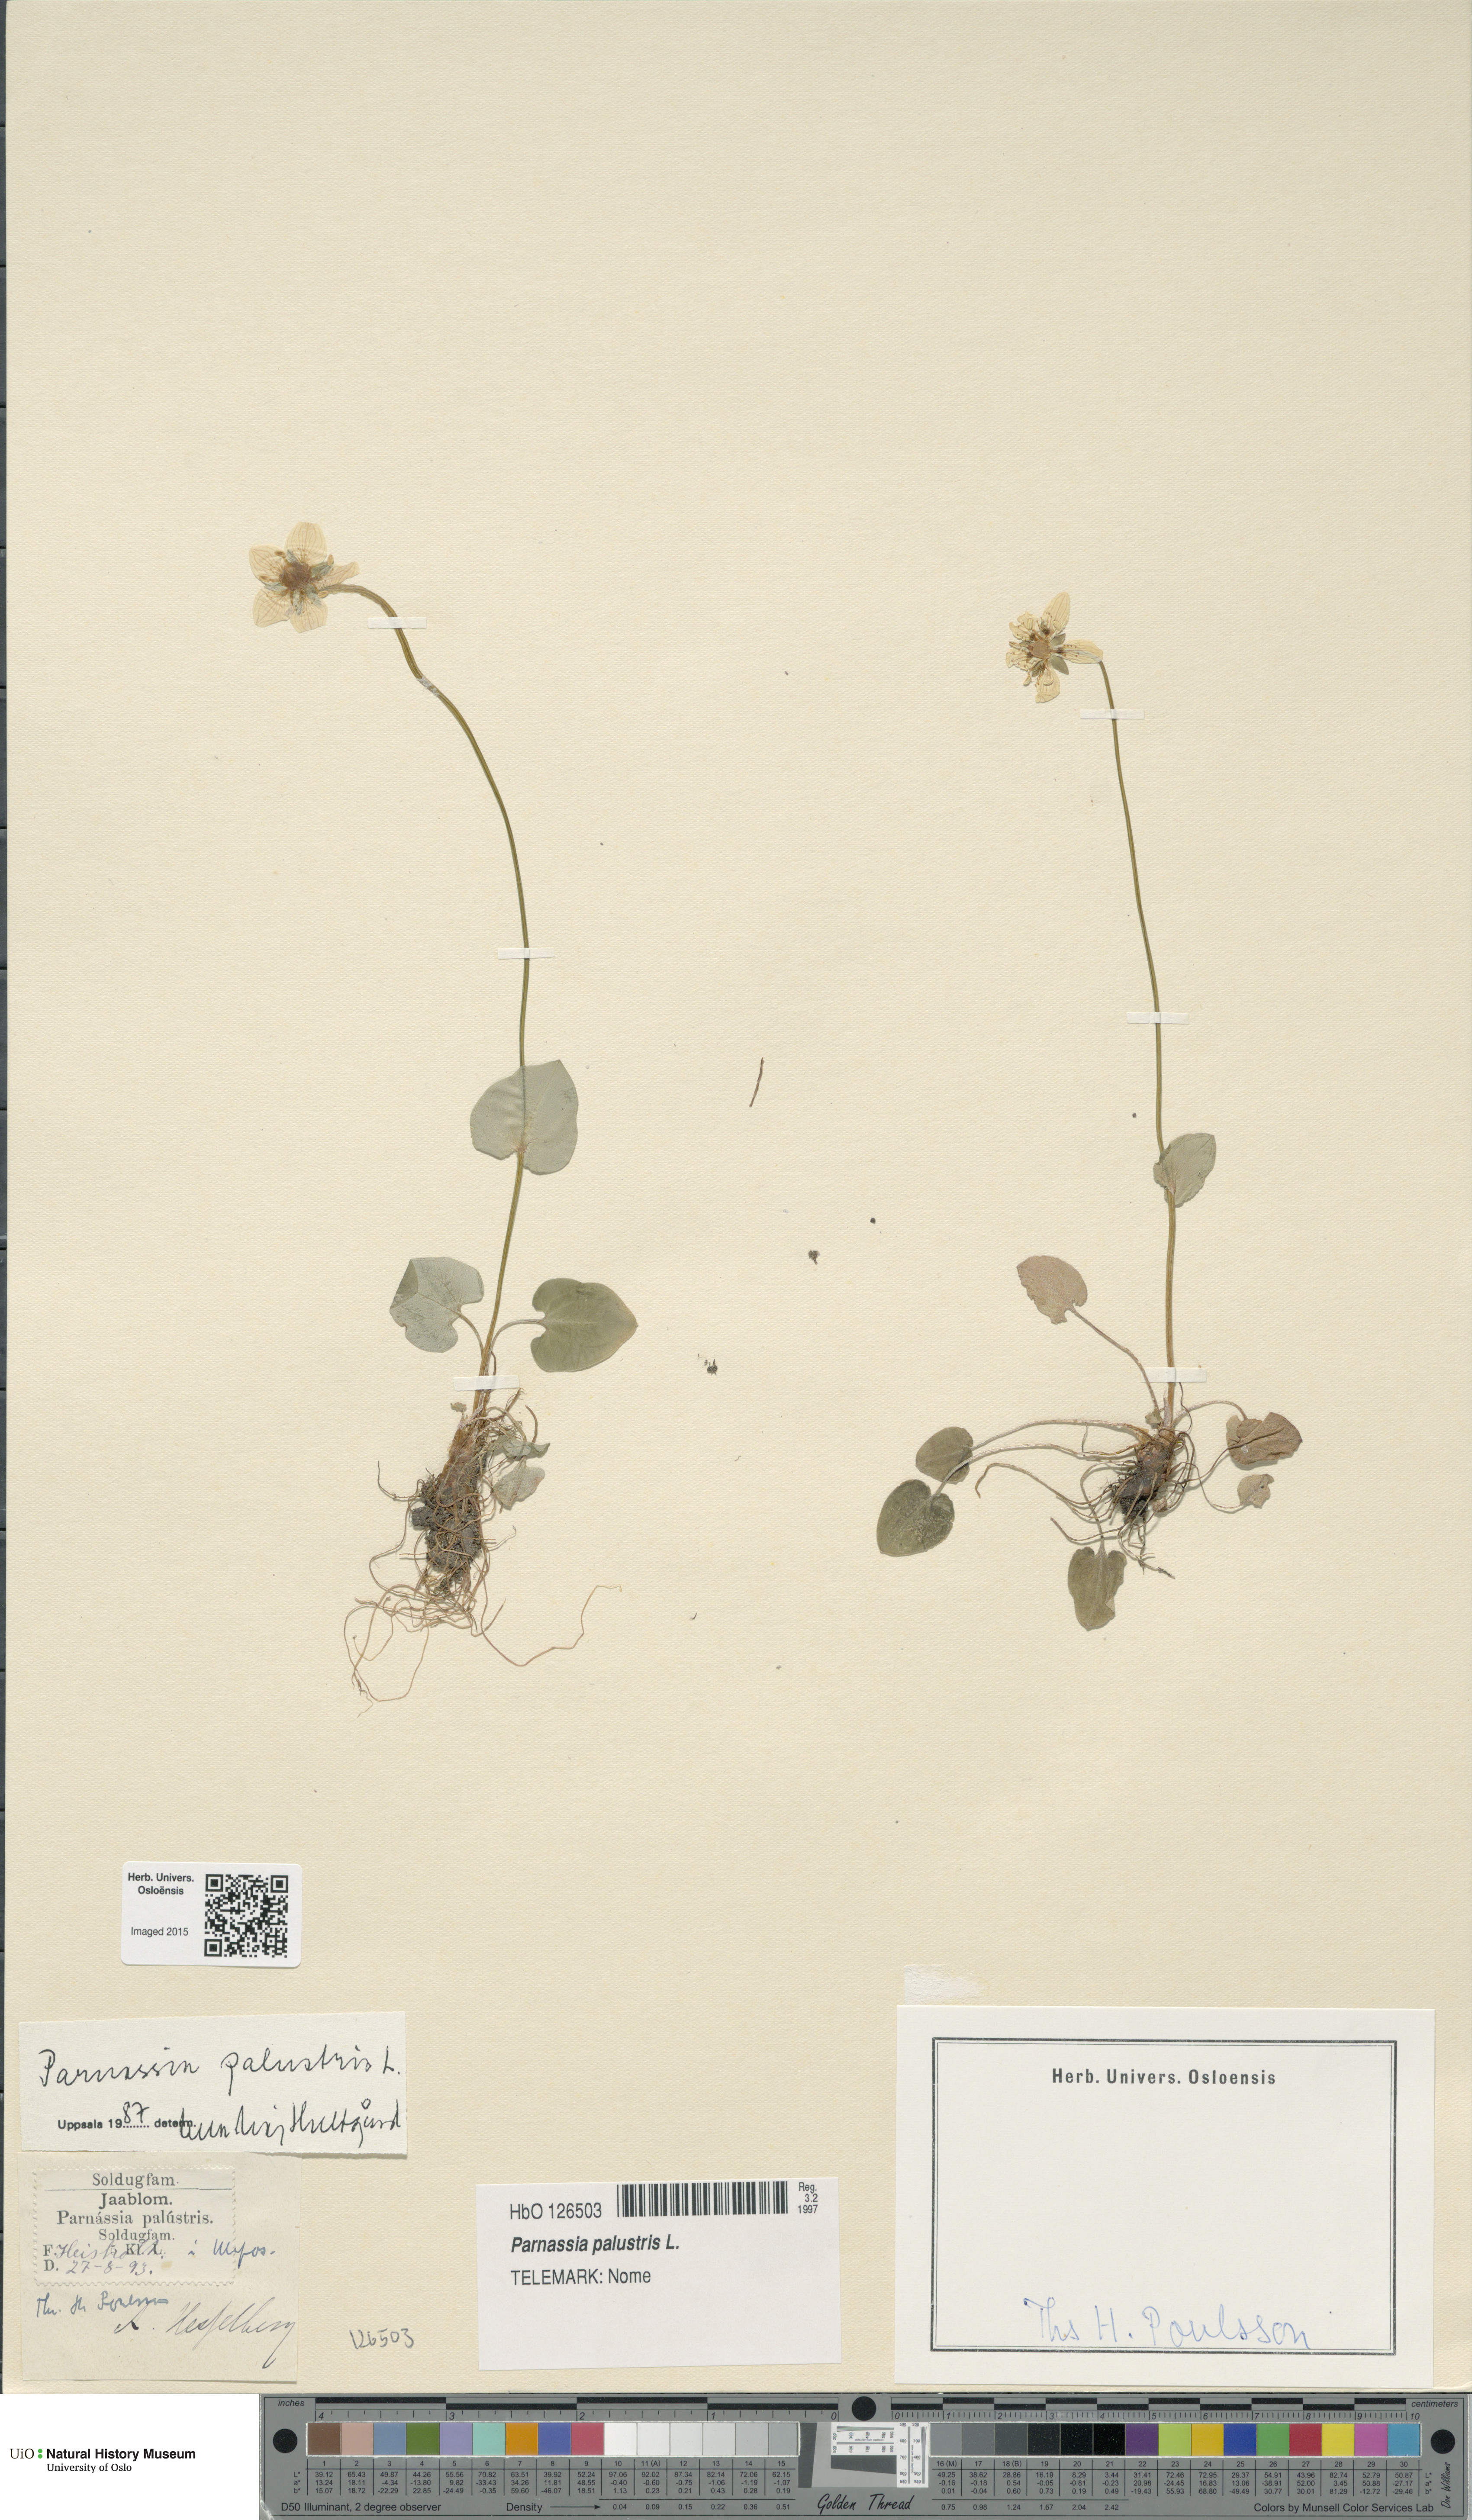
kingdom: Plantae
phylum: Tracheophyta
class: Magnoliopsida
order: Celastrales
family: Parnassiaceae
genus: Parnassia
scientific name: Parnassia palustris
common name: Grass-of-parnassus
